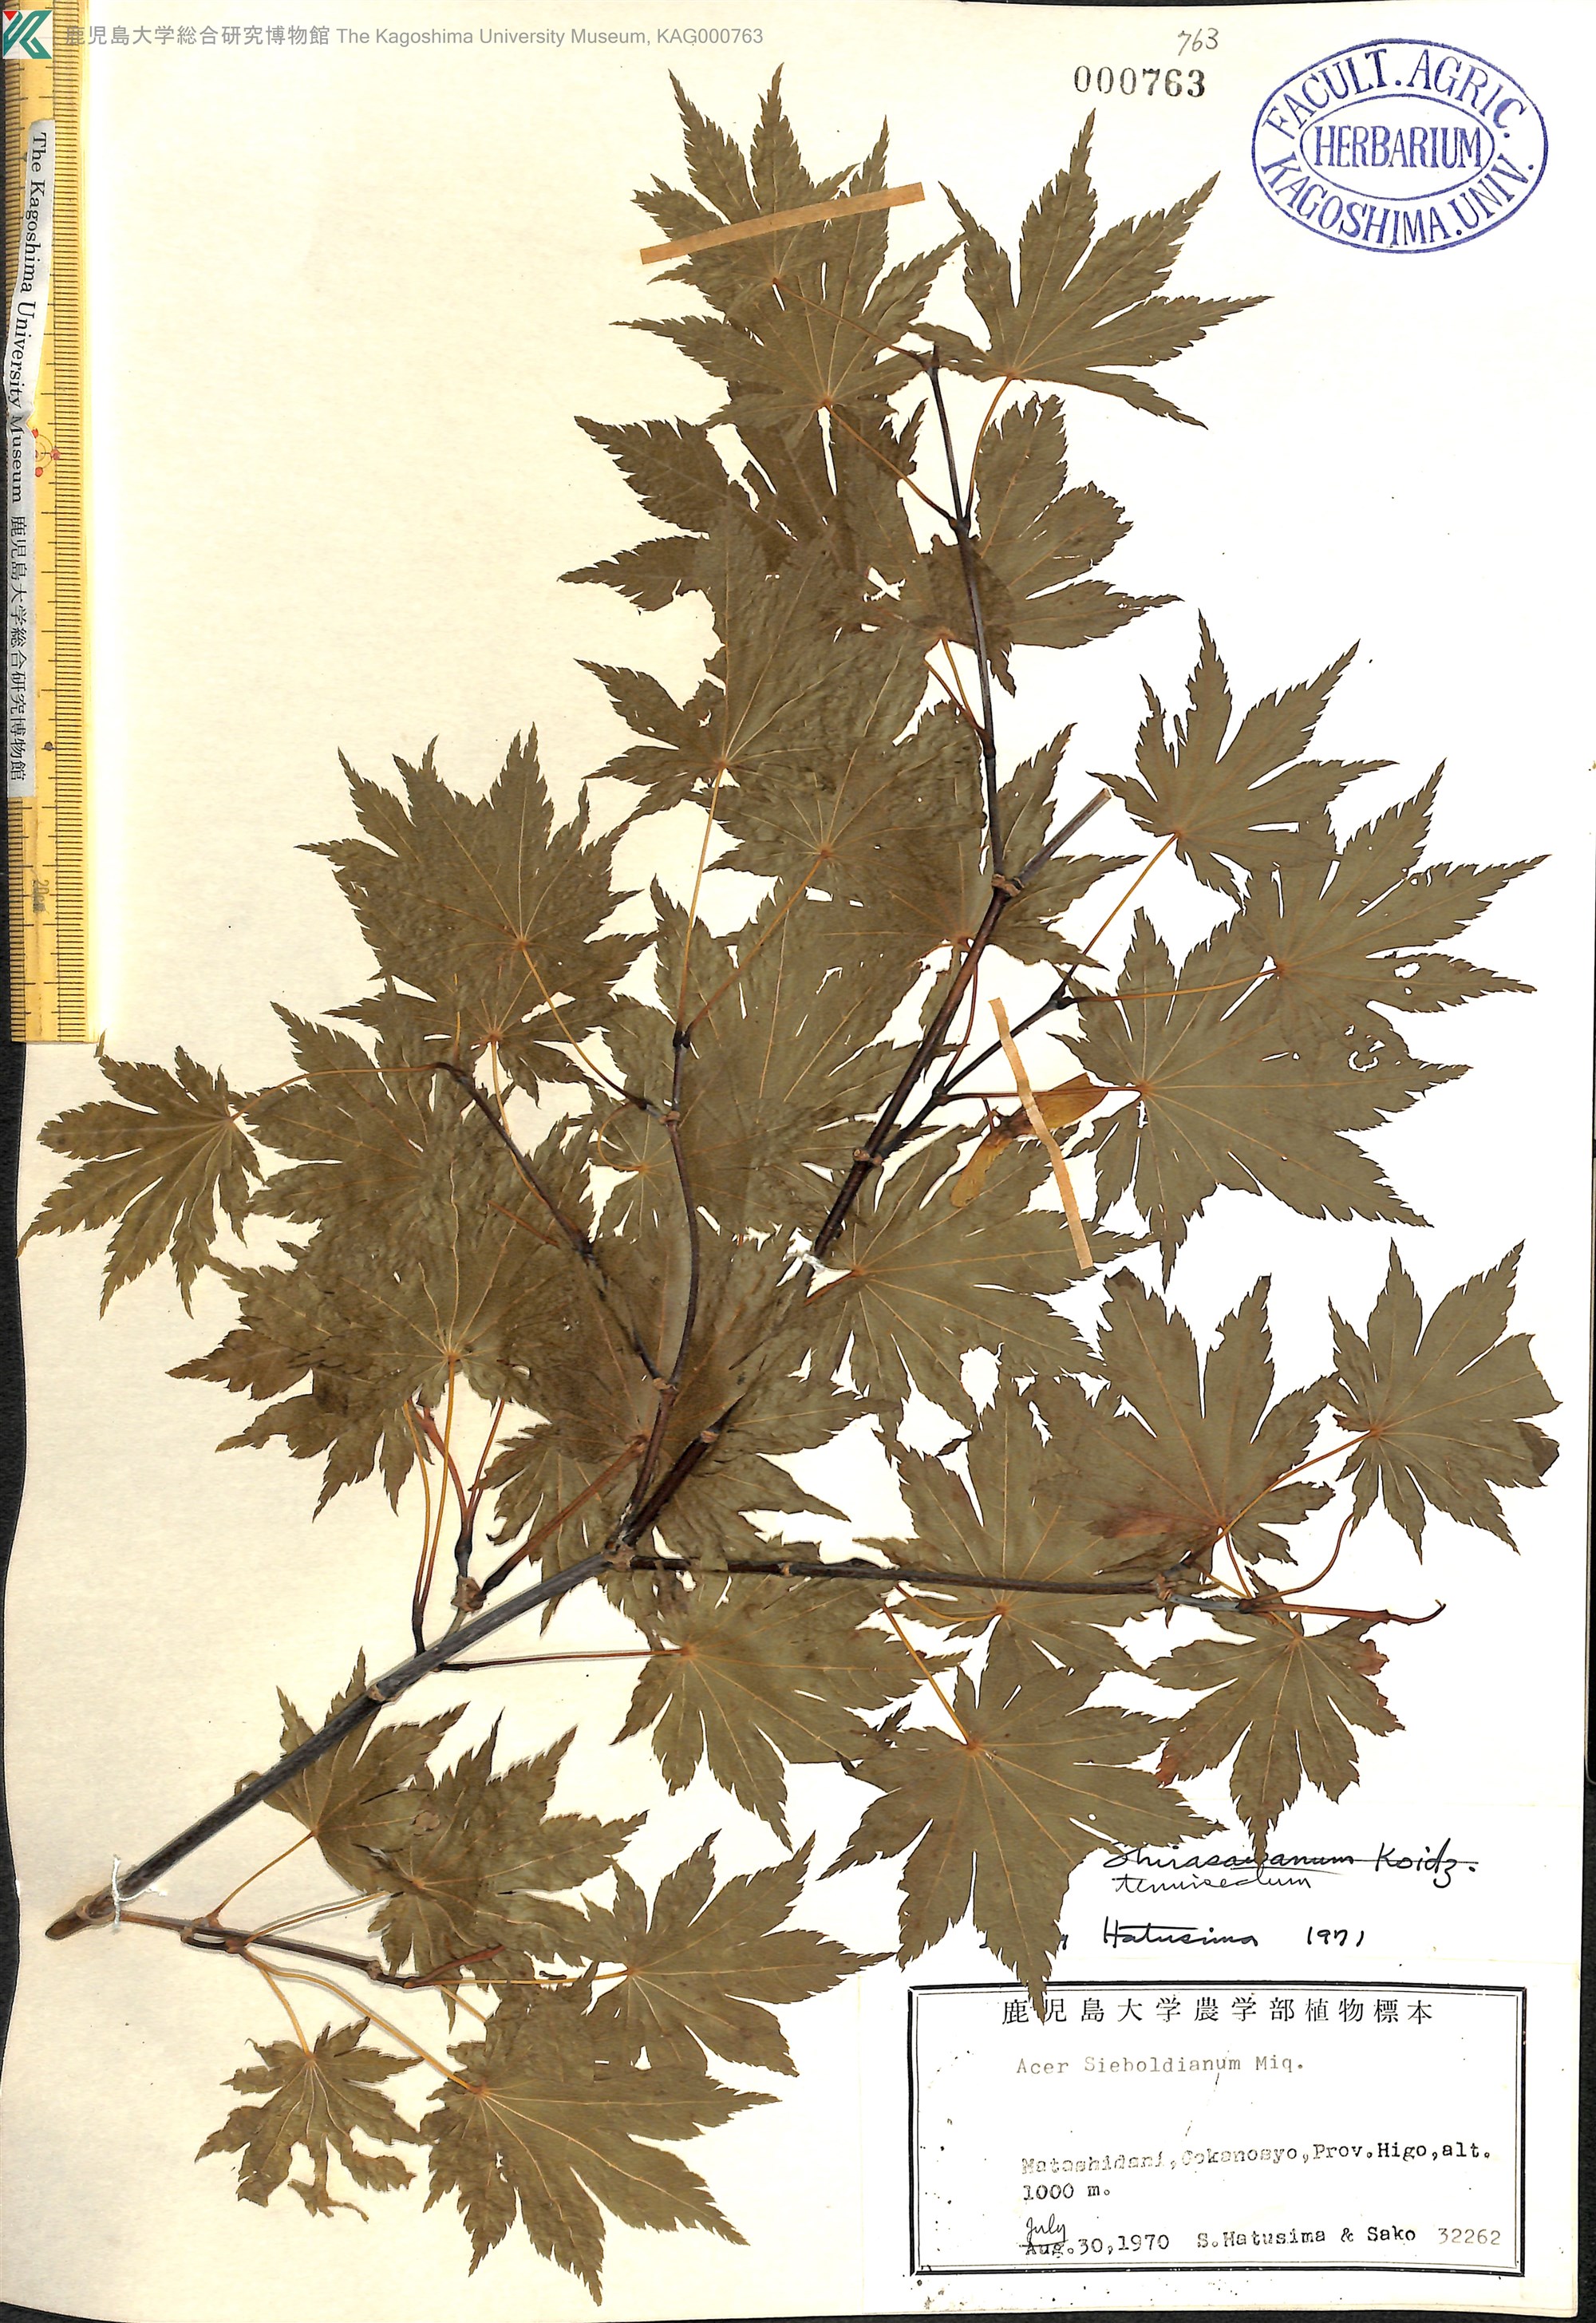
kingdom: Plantae
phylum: Tracheophyta
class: Magnoliopsida
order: Sapindales
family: Sapindaceae
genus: Acer
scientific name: Acer diabolicum
